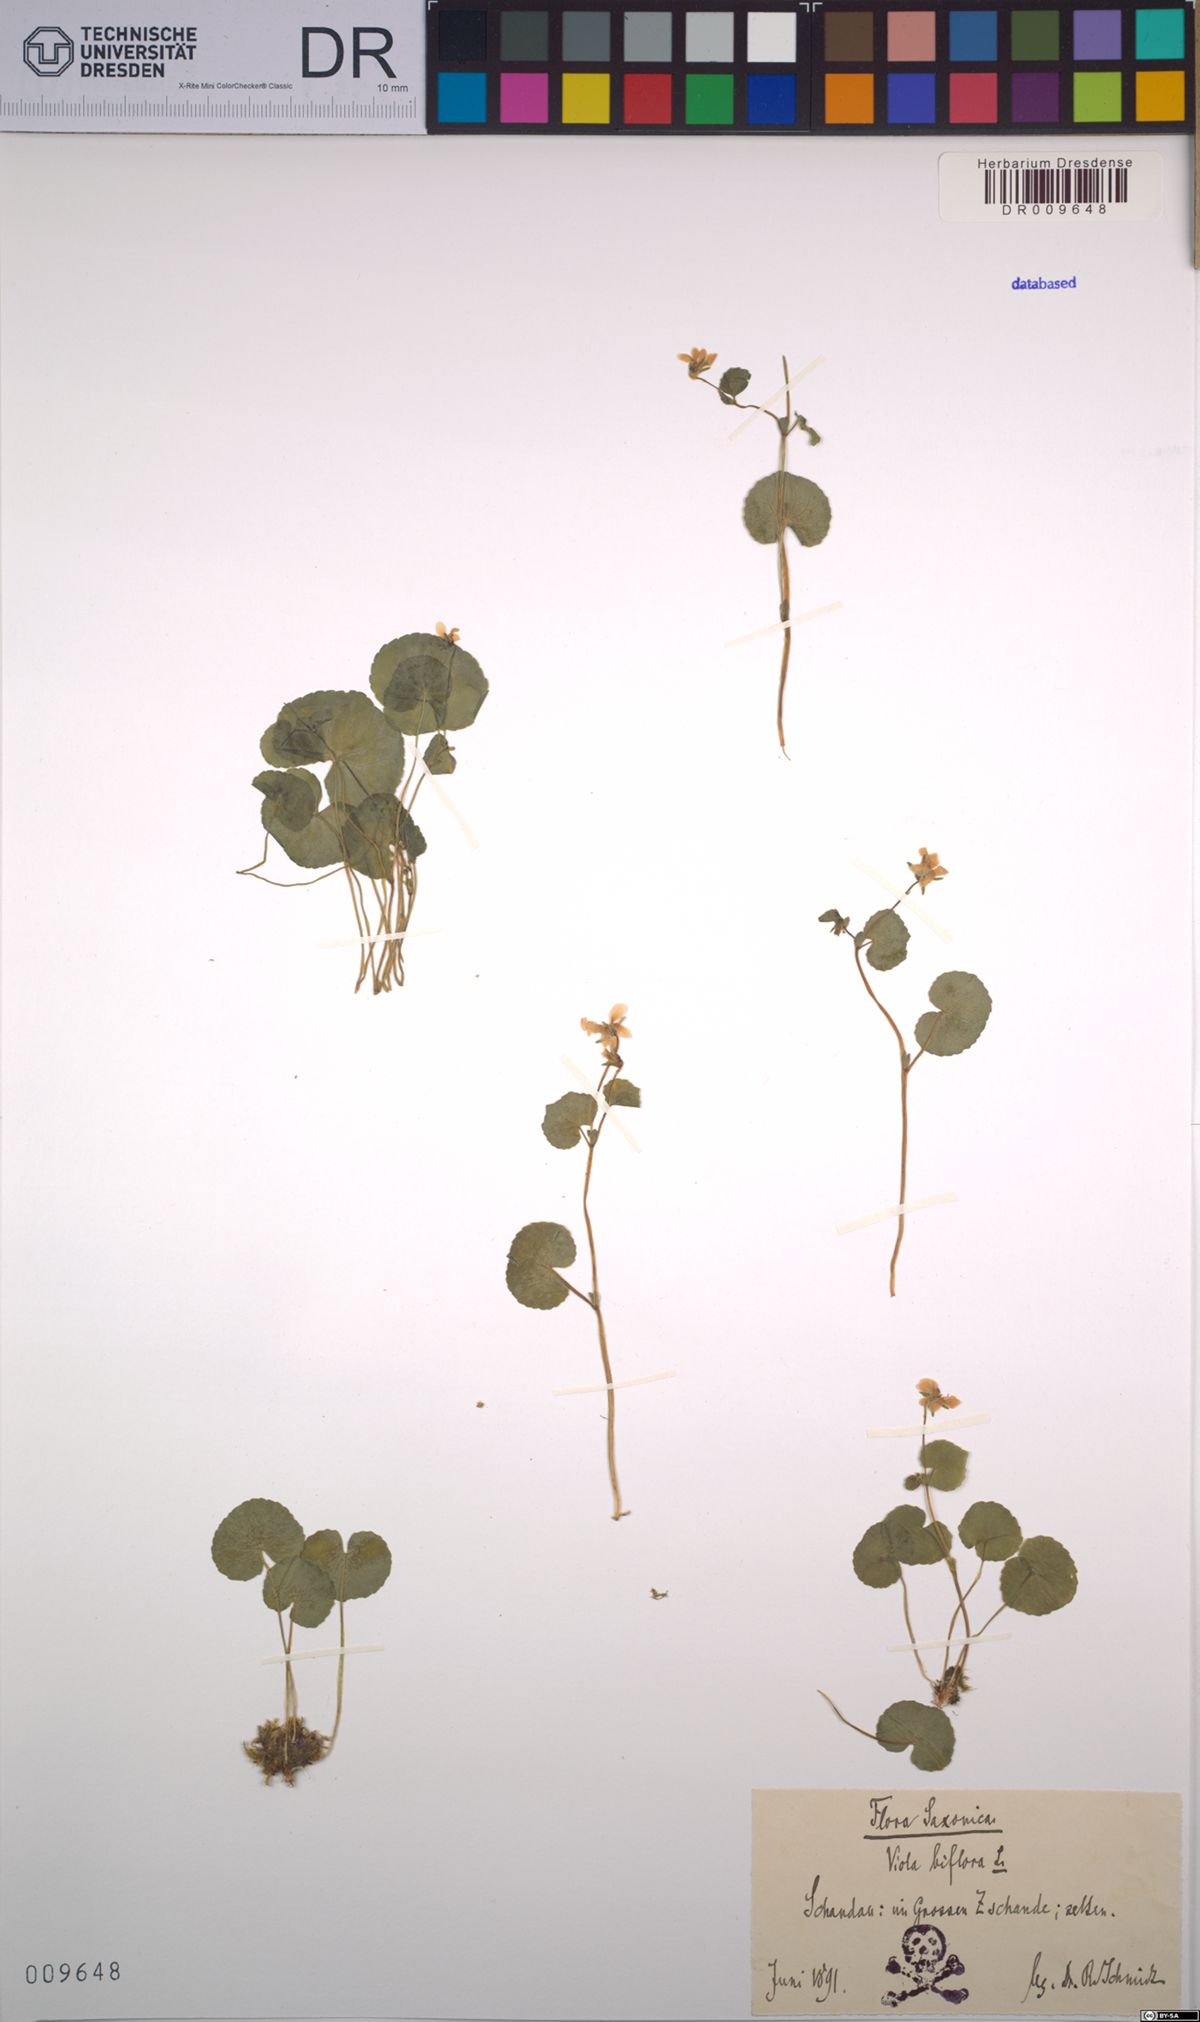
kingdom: Plantae
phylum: Tracheophyta
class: Magnoliopsida
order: Malpighiales
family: Violaceae
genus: Viola
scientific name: Viola biflora
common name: Alpine yellow violet
